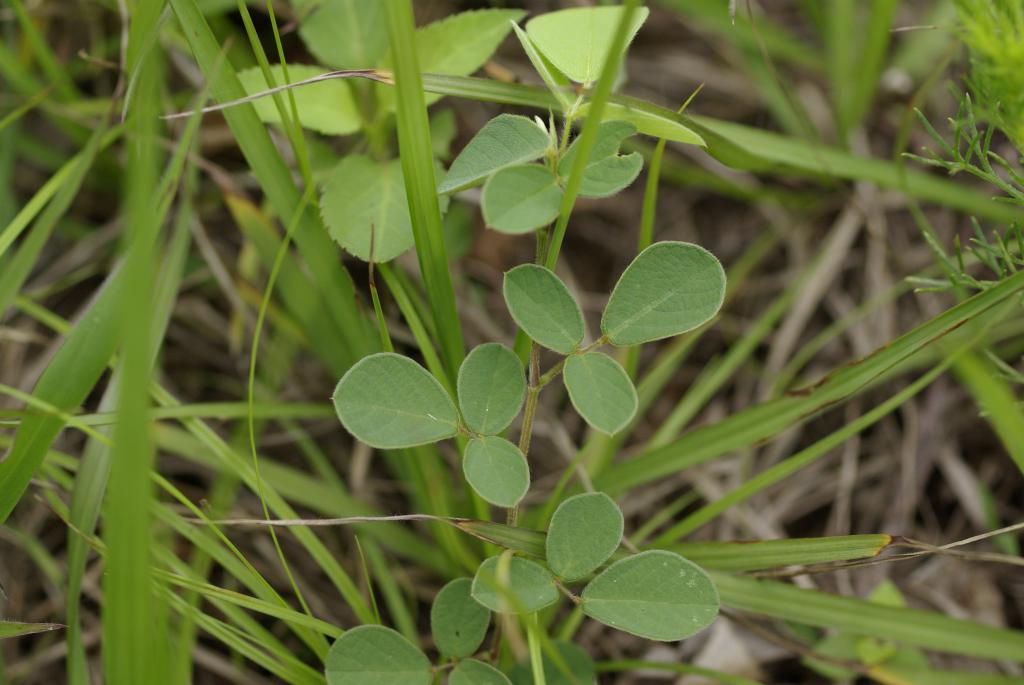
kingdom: Plantae
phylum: Tracheophyta
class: Magnoliopsida
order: Fabales
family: Fabaceae
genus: Pycnospora
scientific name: Pycnospora lutescens
